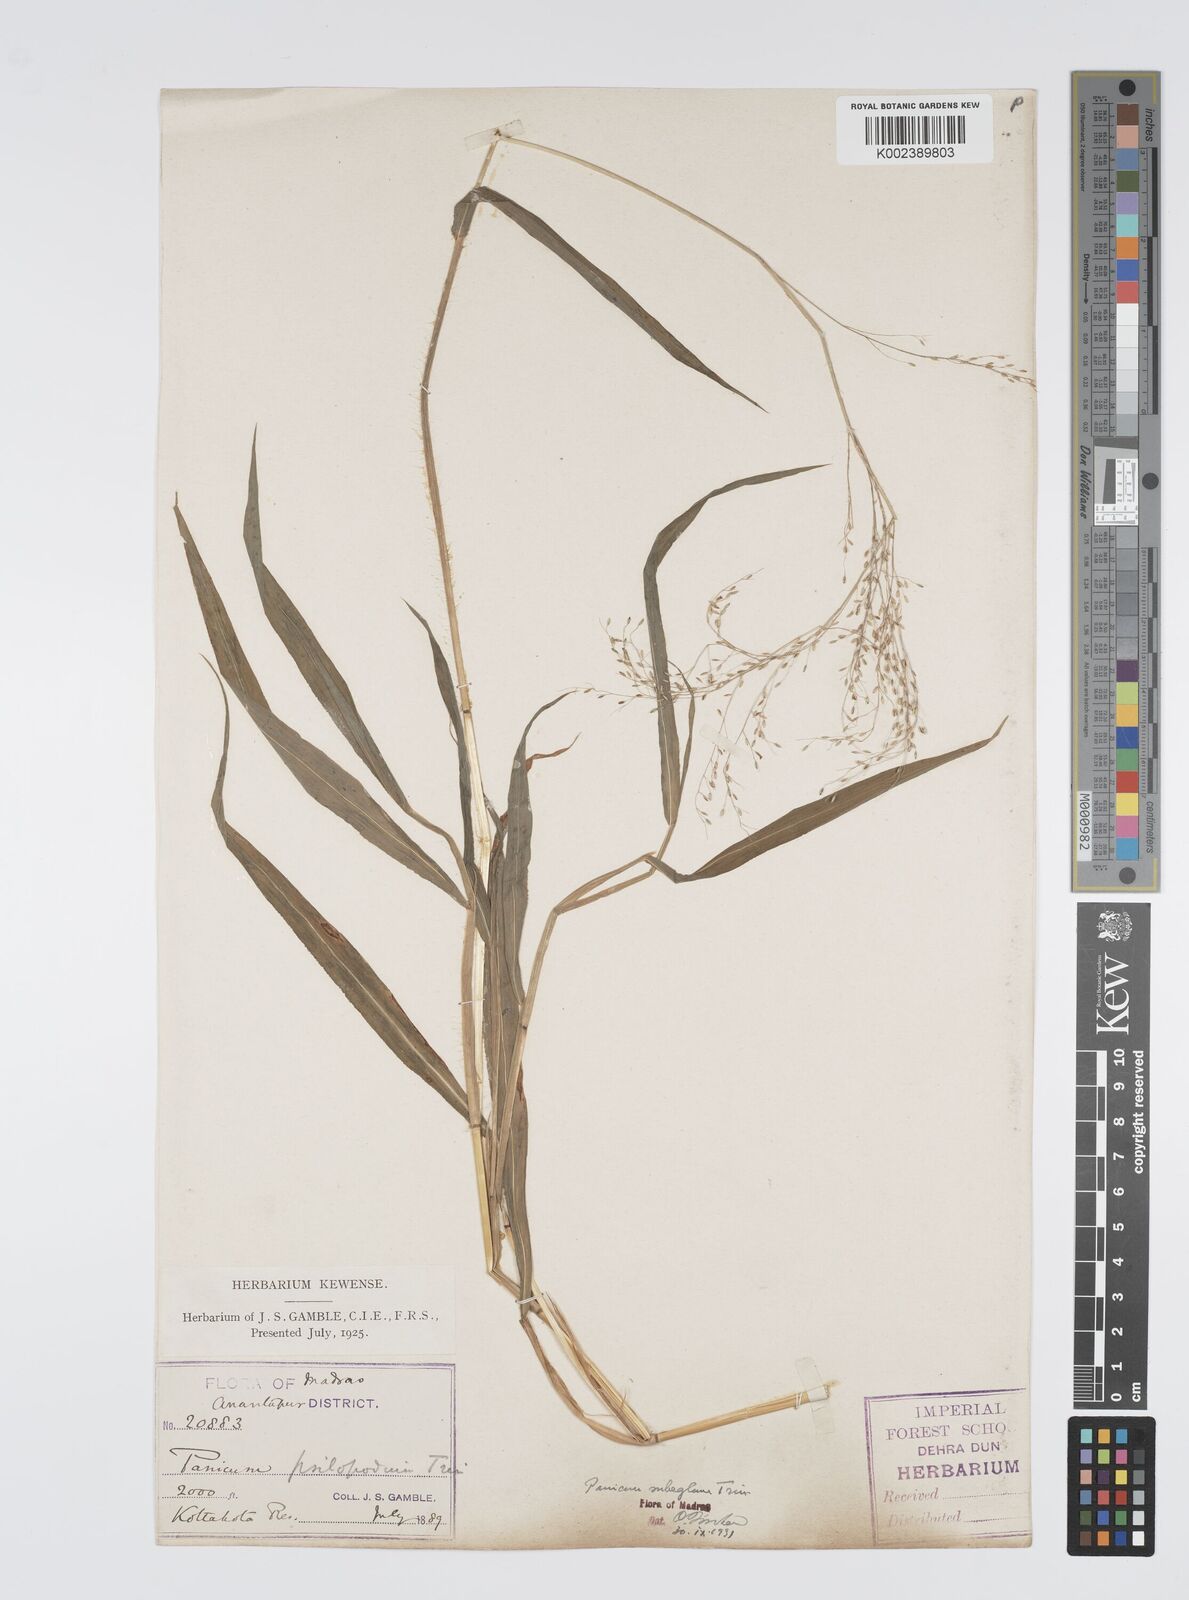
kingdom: Plantae
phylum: Tracheophyta
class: Liliopsida
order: Poales
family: Poaceae
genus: Digitaria
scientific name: Digitaria tomentosa
